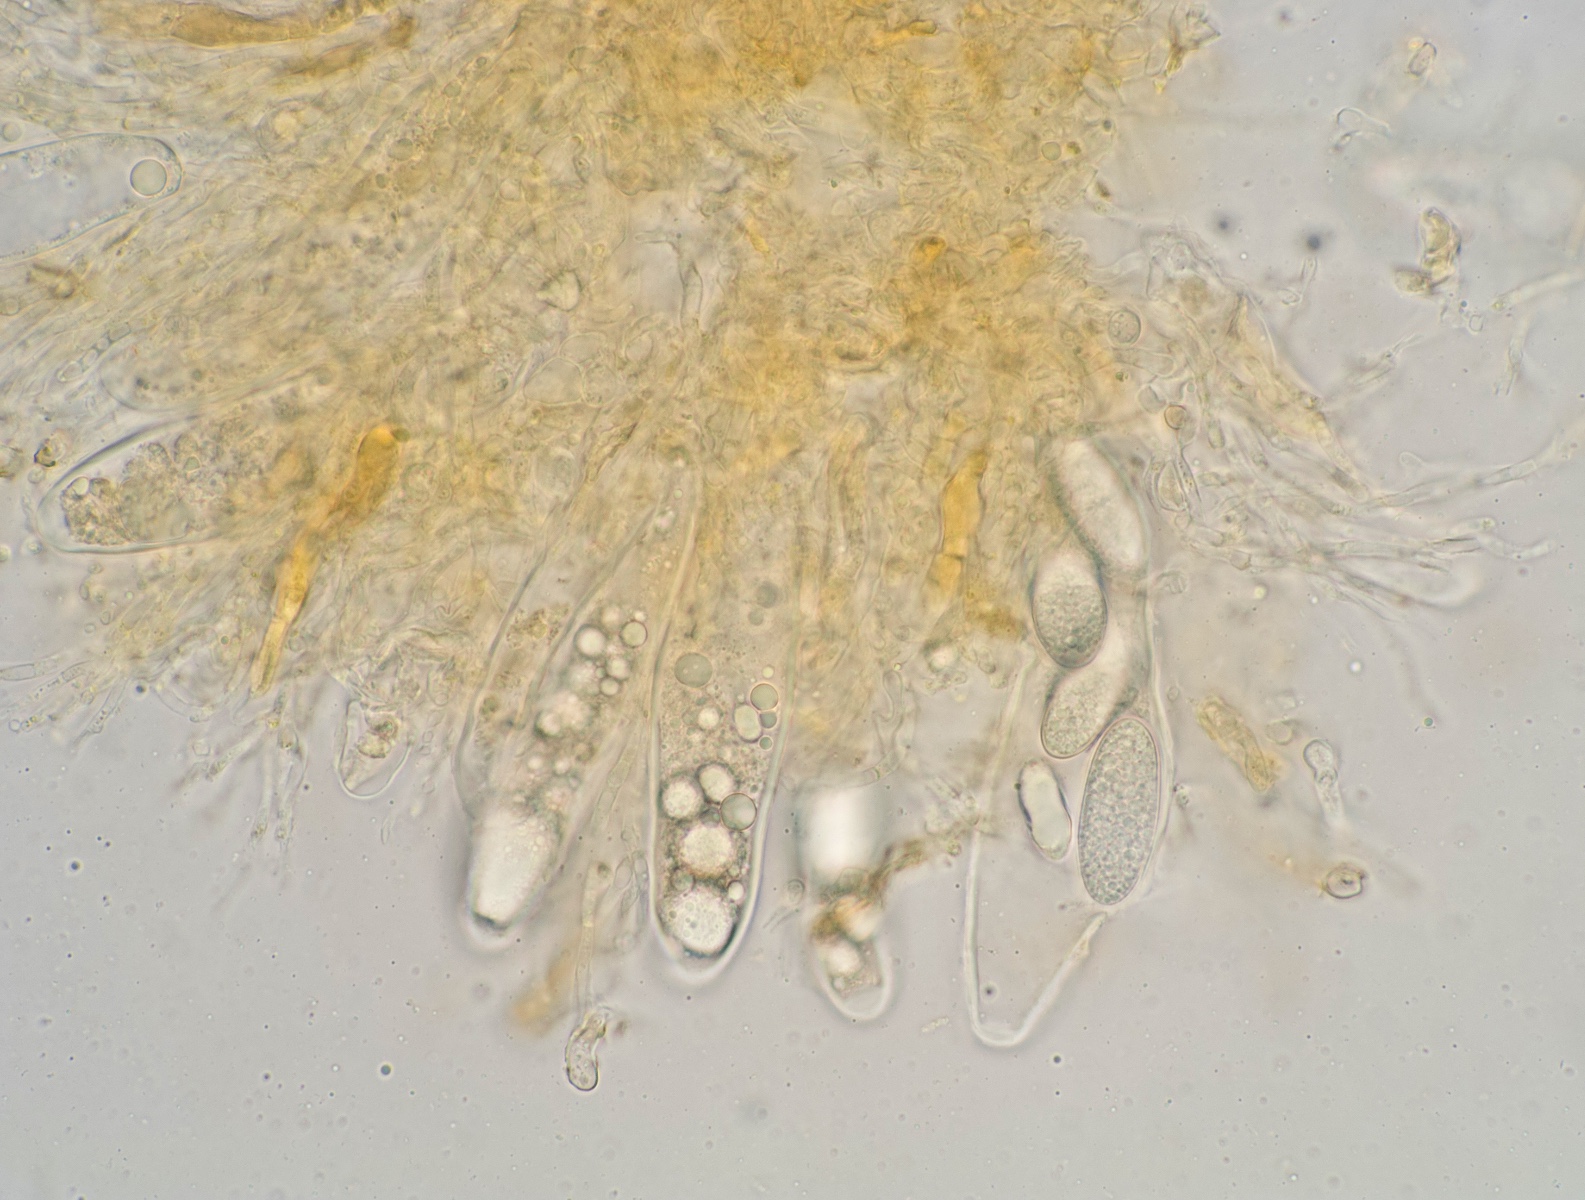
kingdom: Fungi
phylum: Ascomycota
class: Leotiomycetes
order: Helotiales
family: Dermateaceae
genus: Pezicula
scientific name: Pezicula sepium
